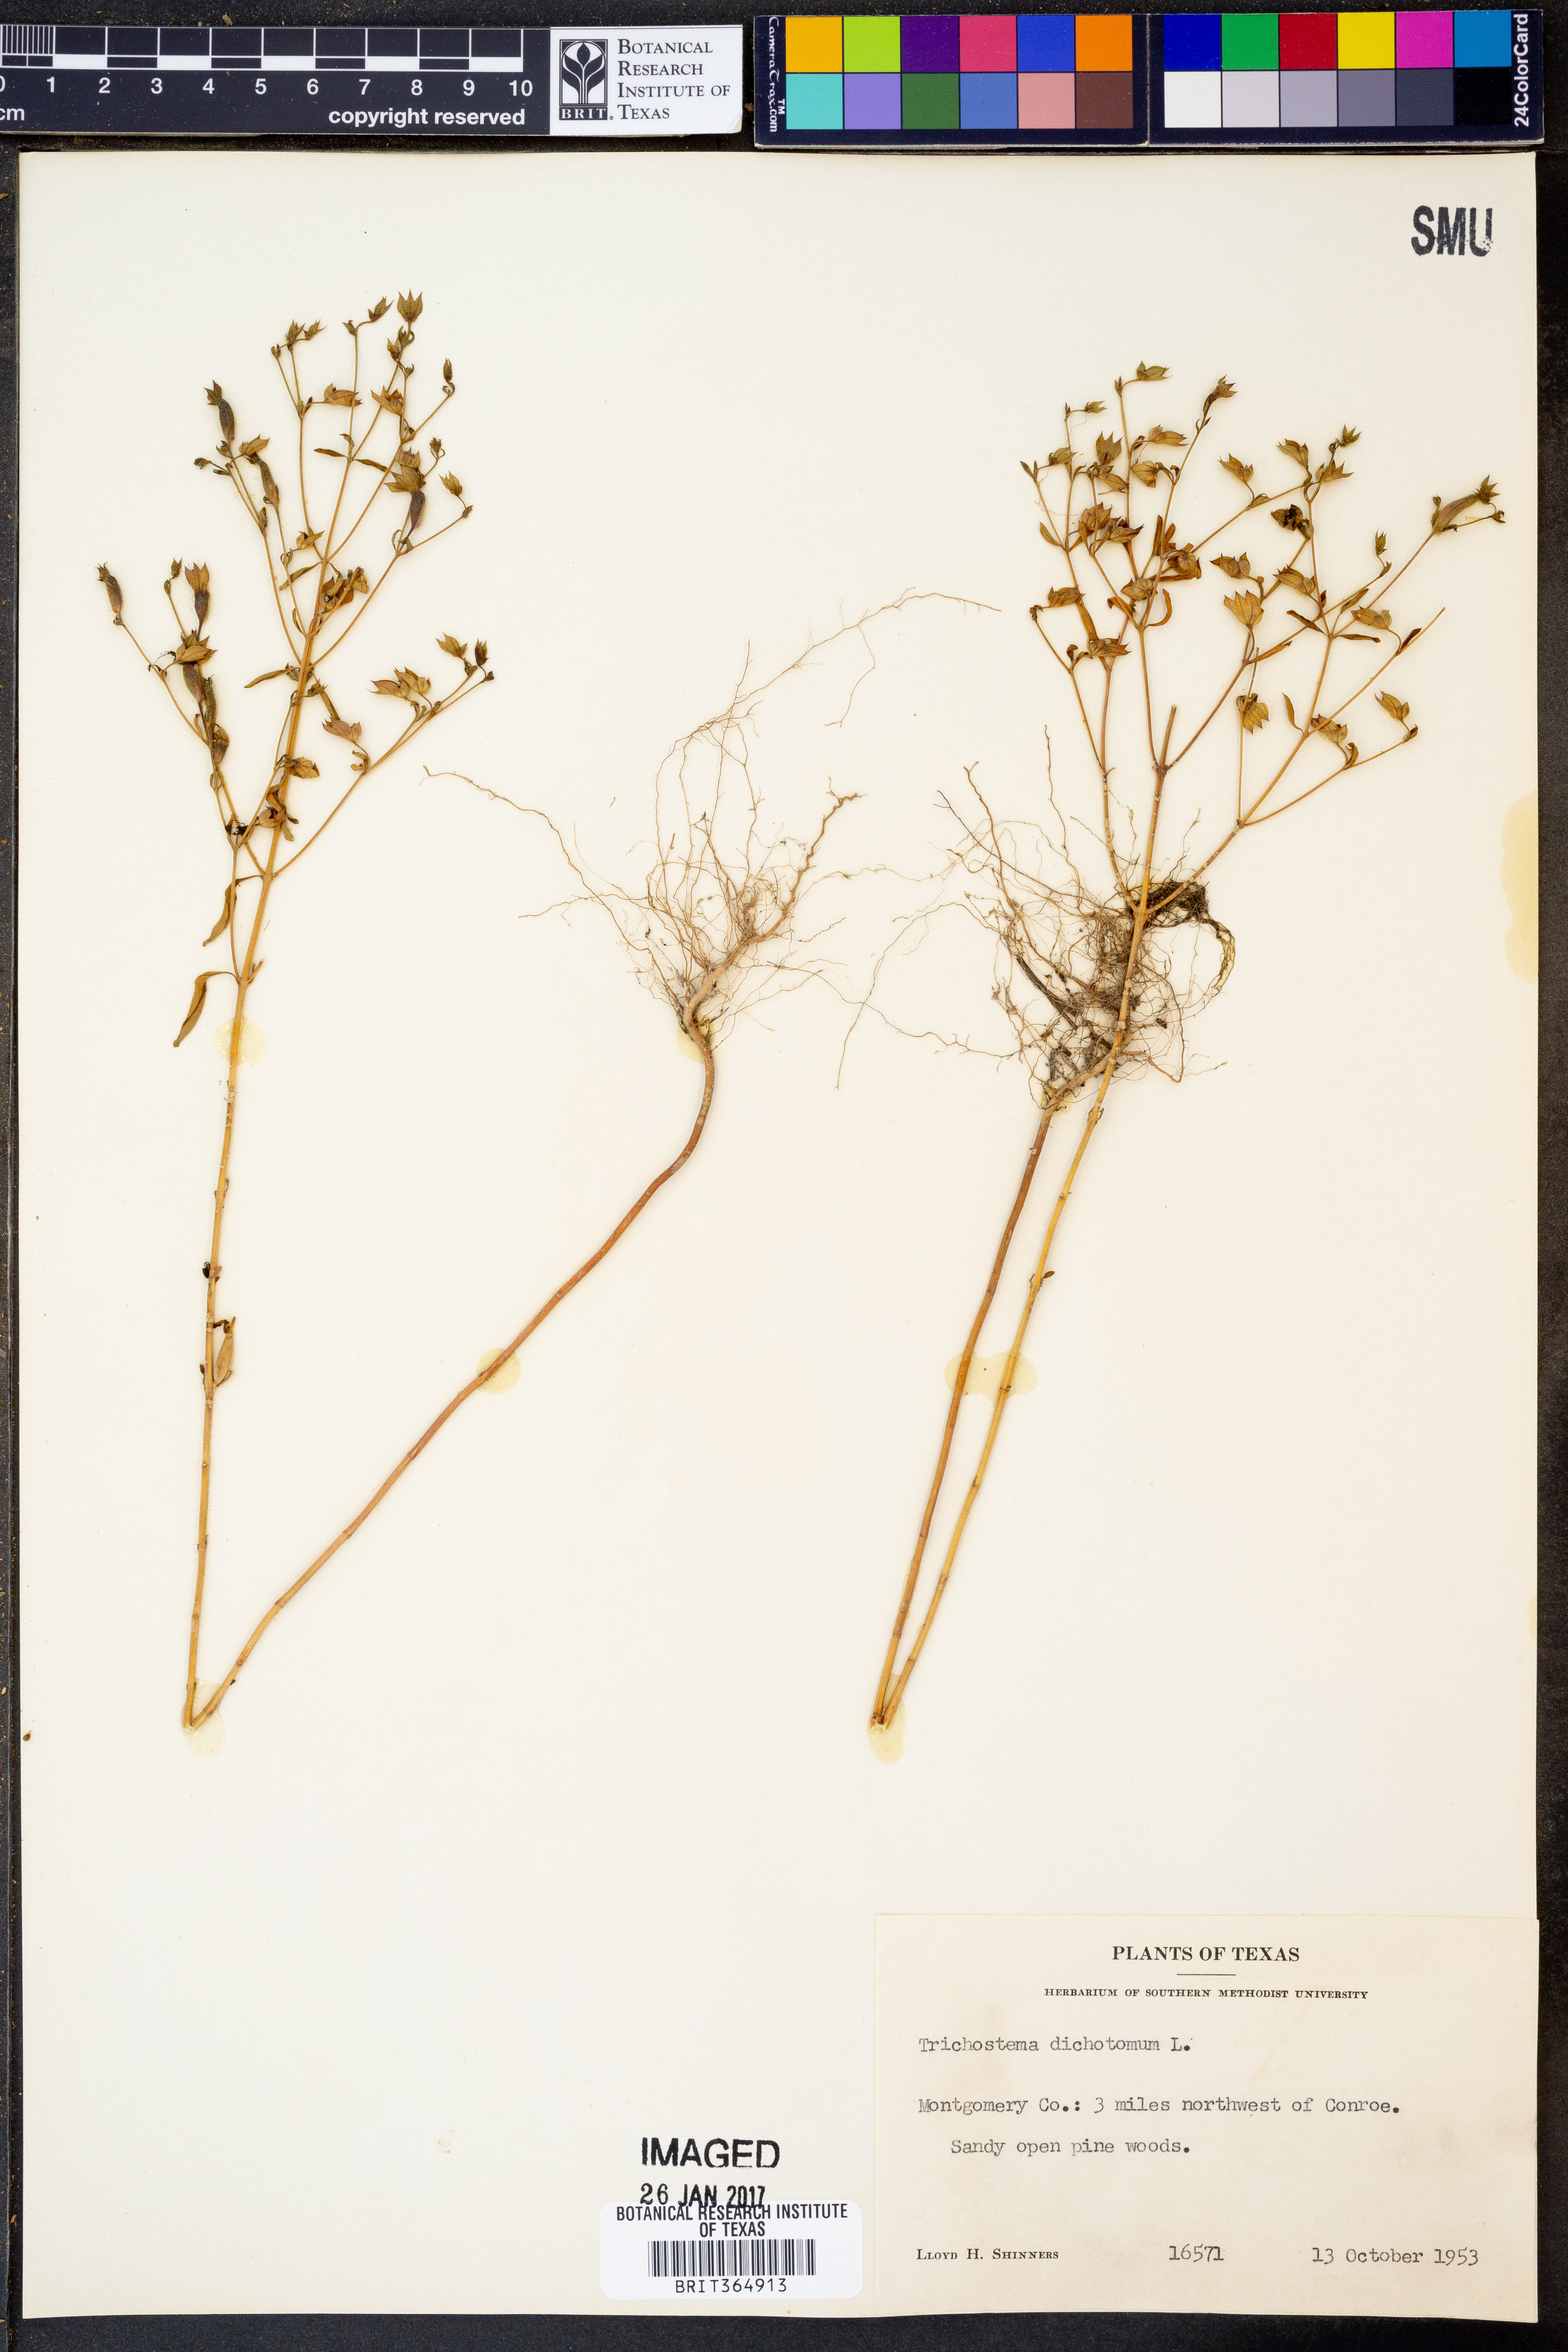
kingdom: Plantae
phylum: Tracheophyta
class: Magnoliopsida
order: Lamiales
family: Lamiaceae
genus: Trichostema
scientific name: Trichostema dichotomum
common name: Bastard pennyroyal
